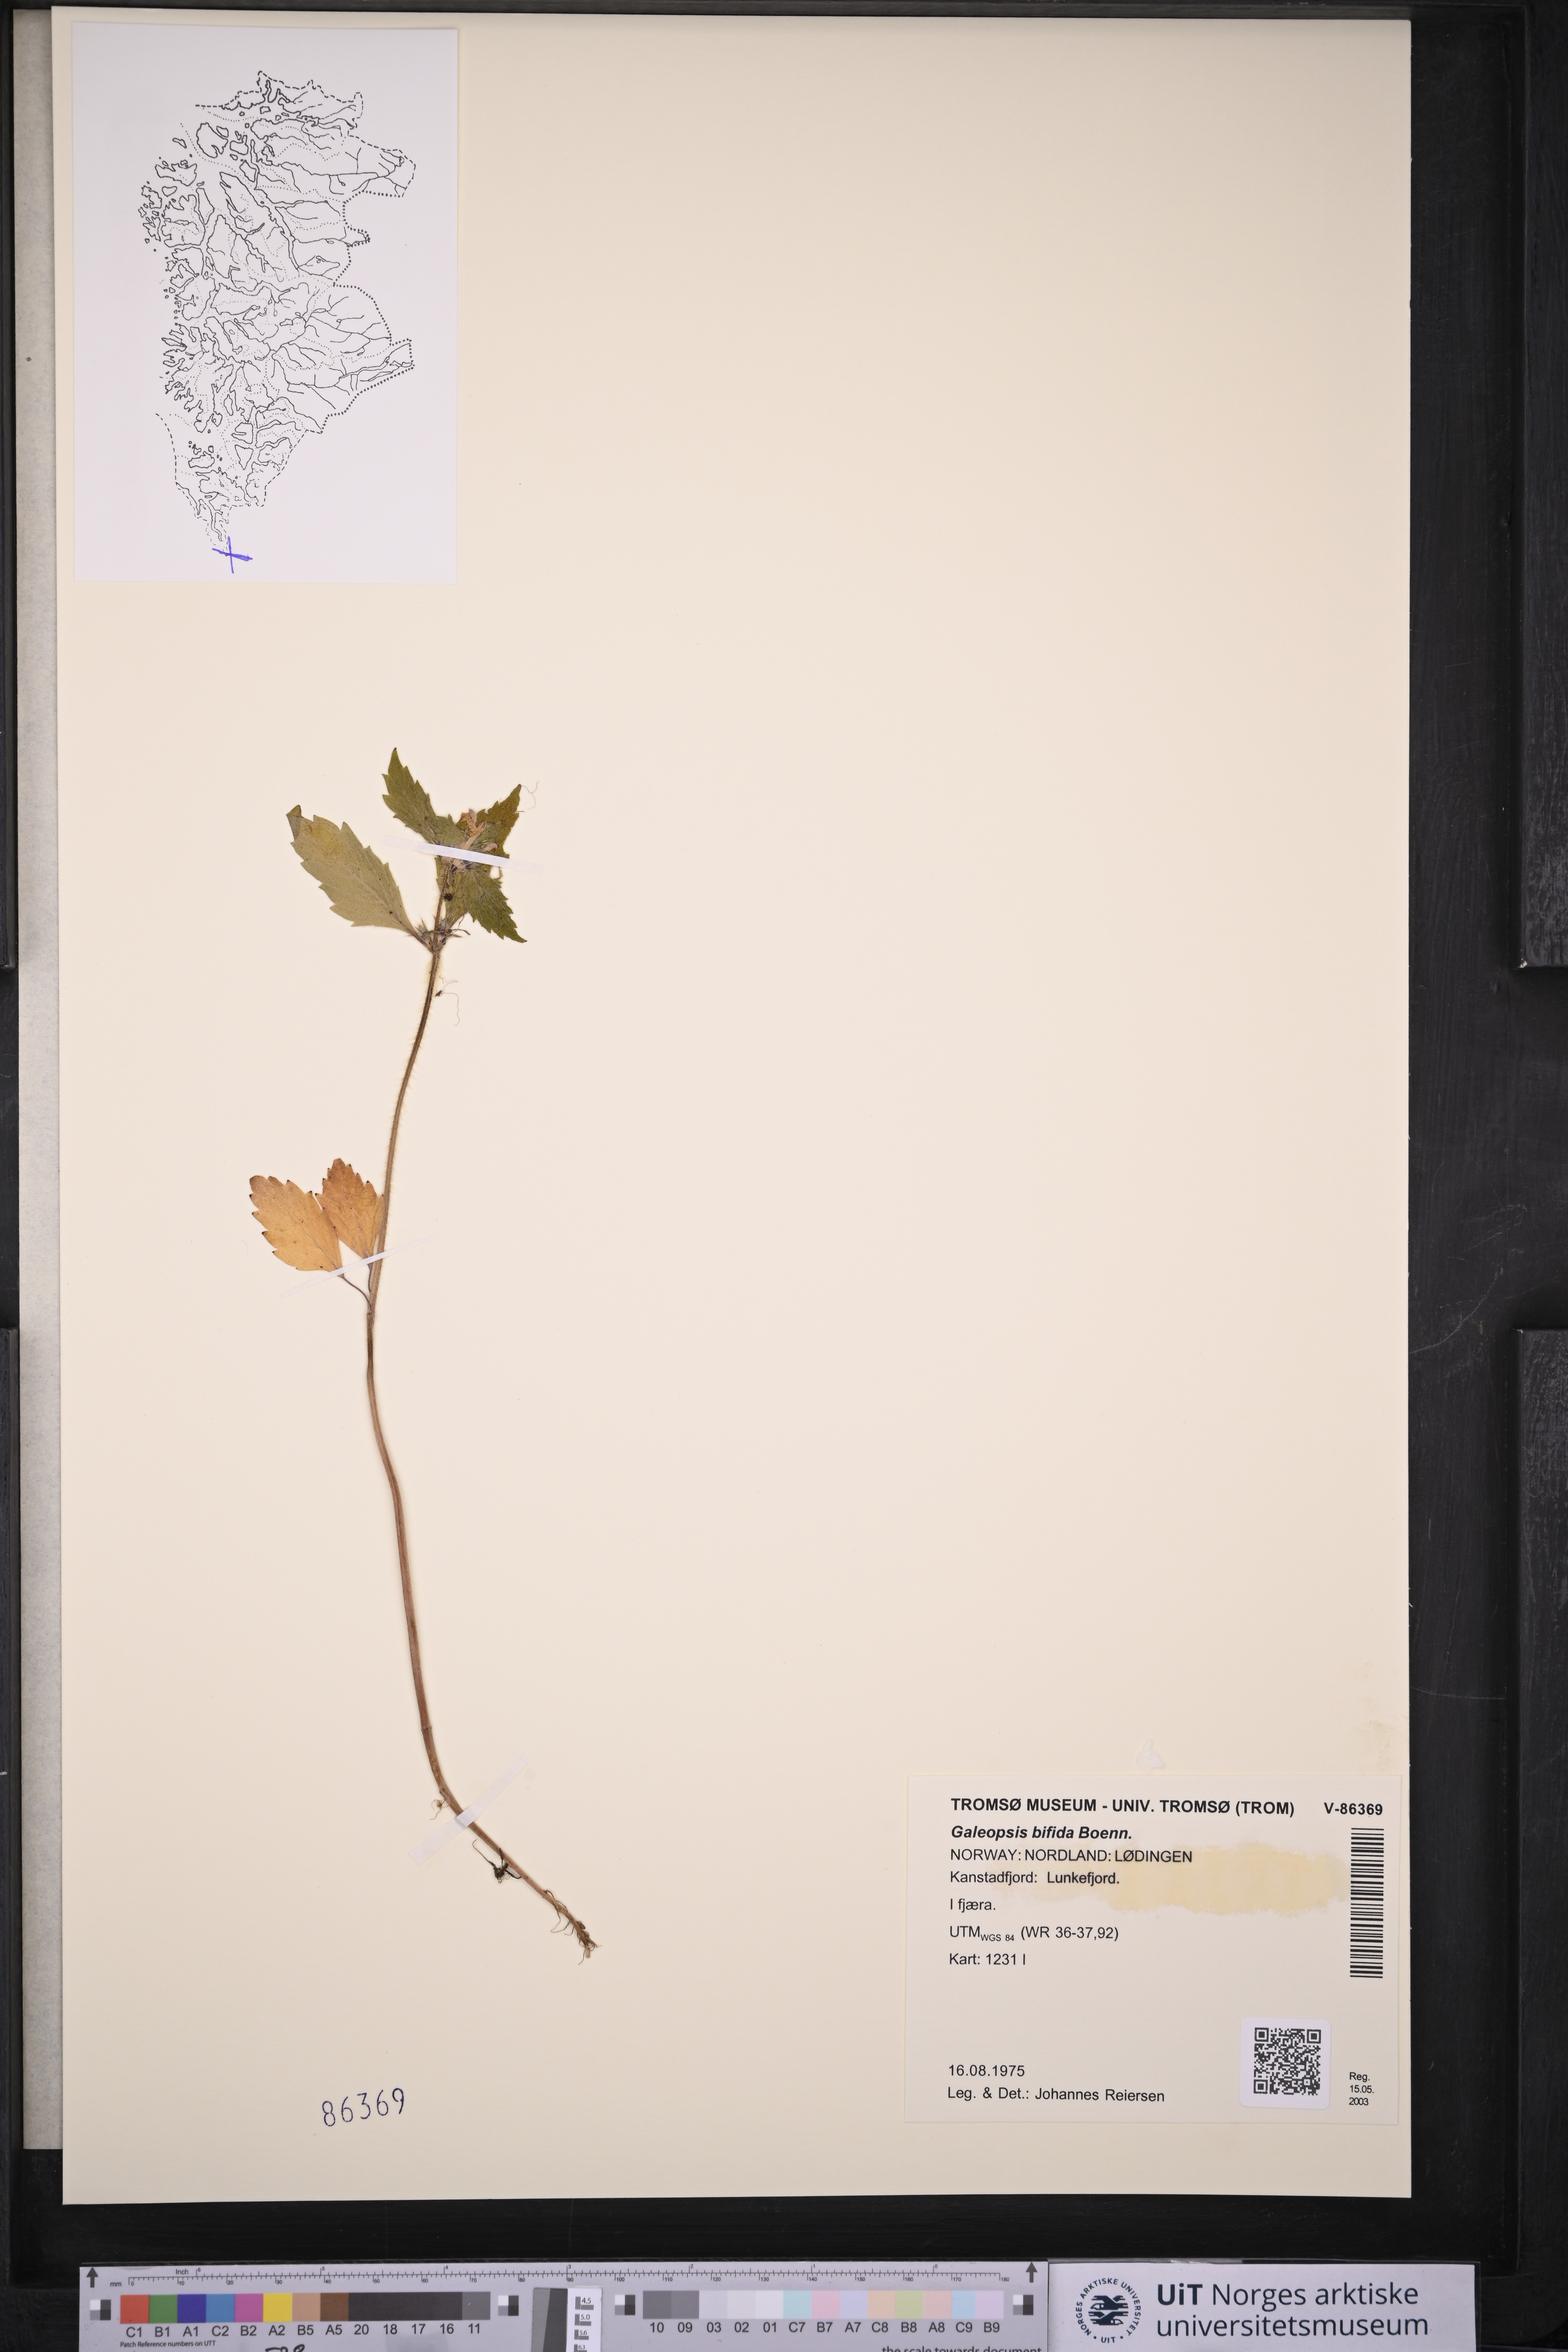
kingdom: Plantae
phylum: Tracheophyta
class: Magnoliopsida
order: Lamiales
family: Lamiaceae
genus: Galeopsis
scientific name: Galeopsis bifida
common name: Bifid hemp-nettle
